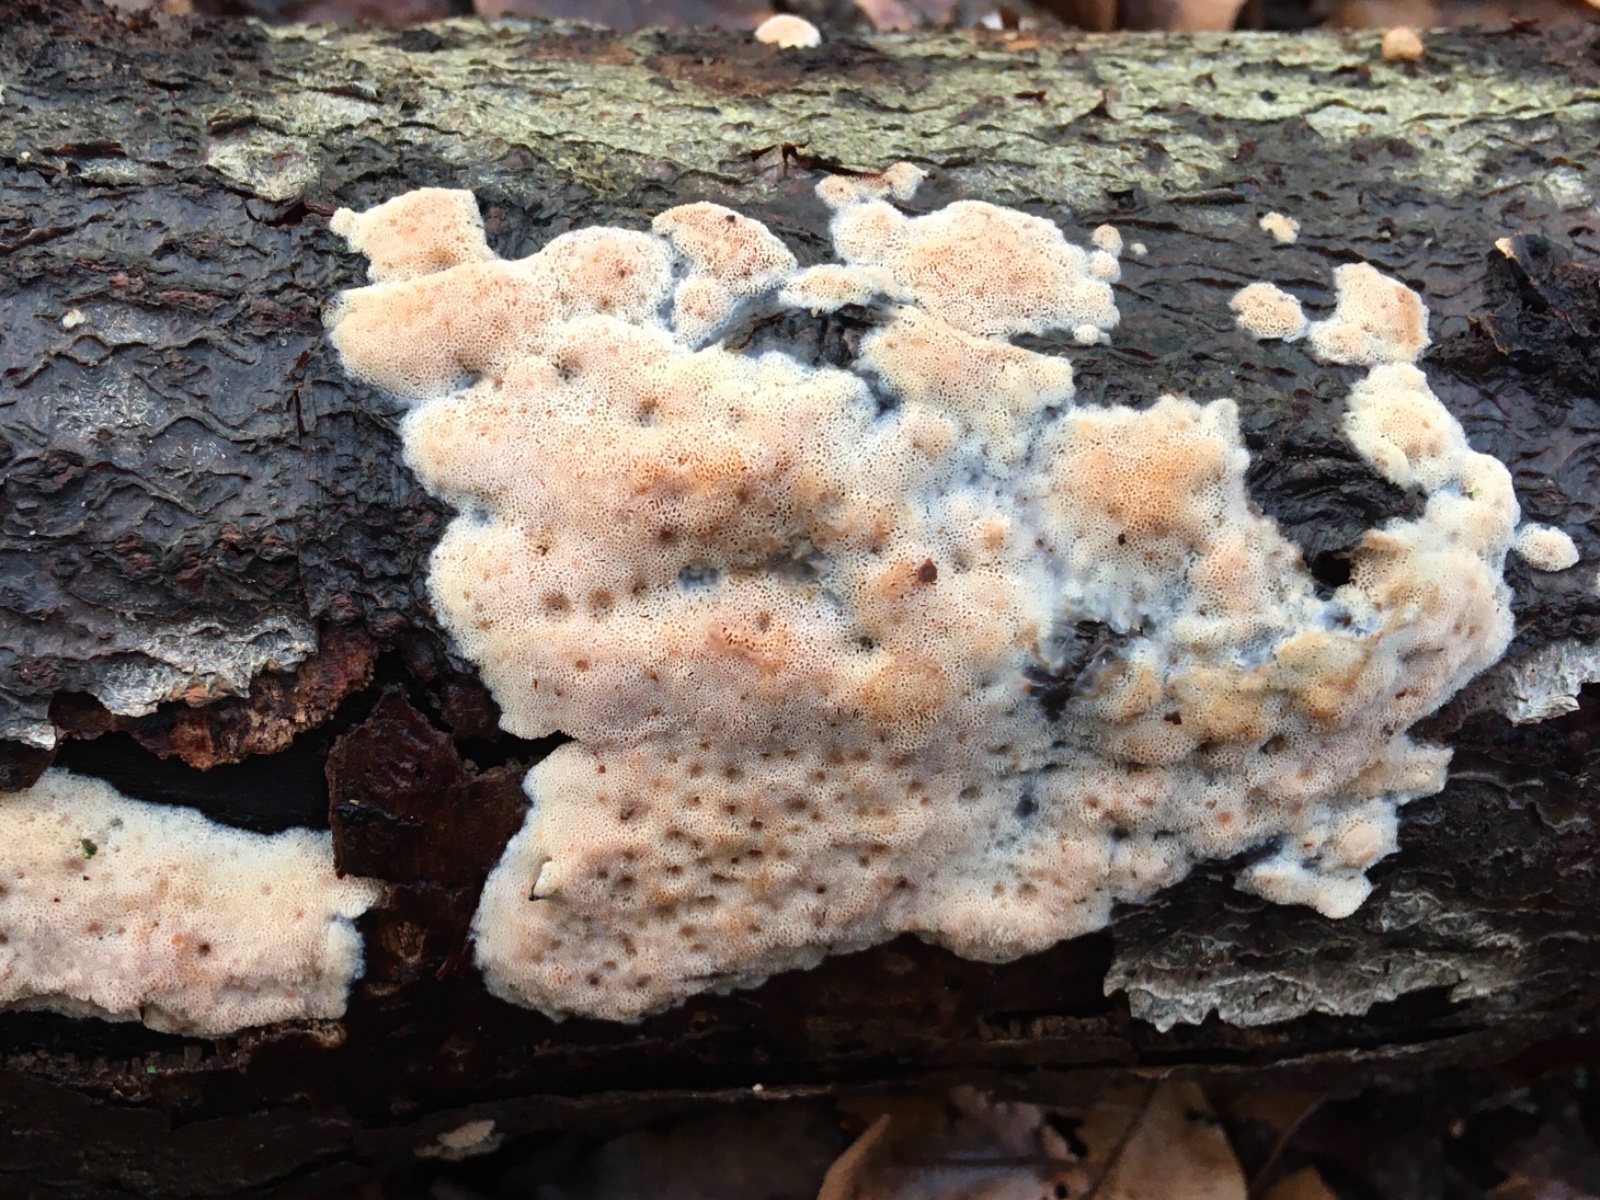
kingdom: Fungi
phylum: Basidiomycota
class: Agaricomycetes
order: Polyporales
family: Meruliaceae
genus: Mycoacia
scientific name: Mycoacia gilvescens
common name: rosa pastelporesvamp
